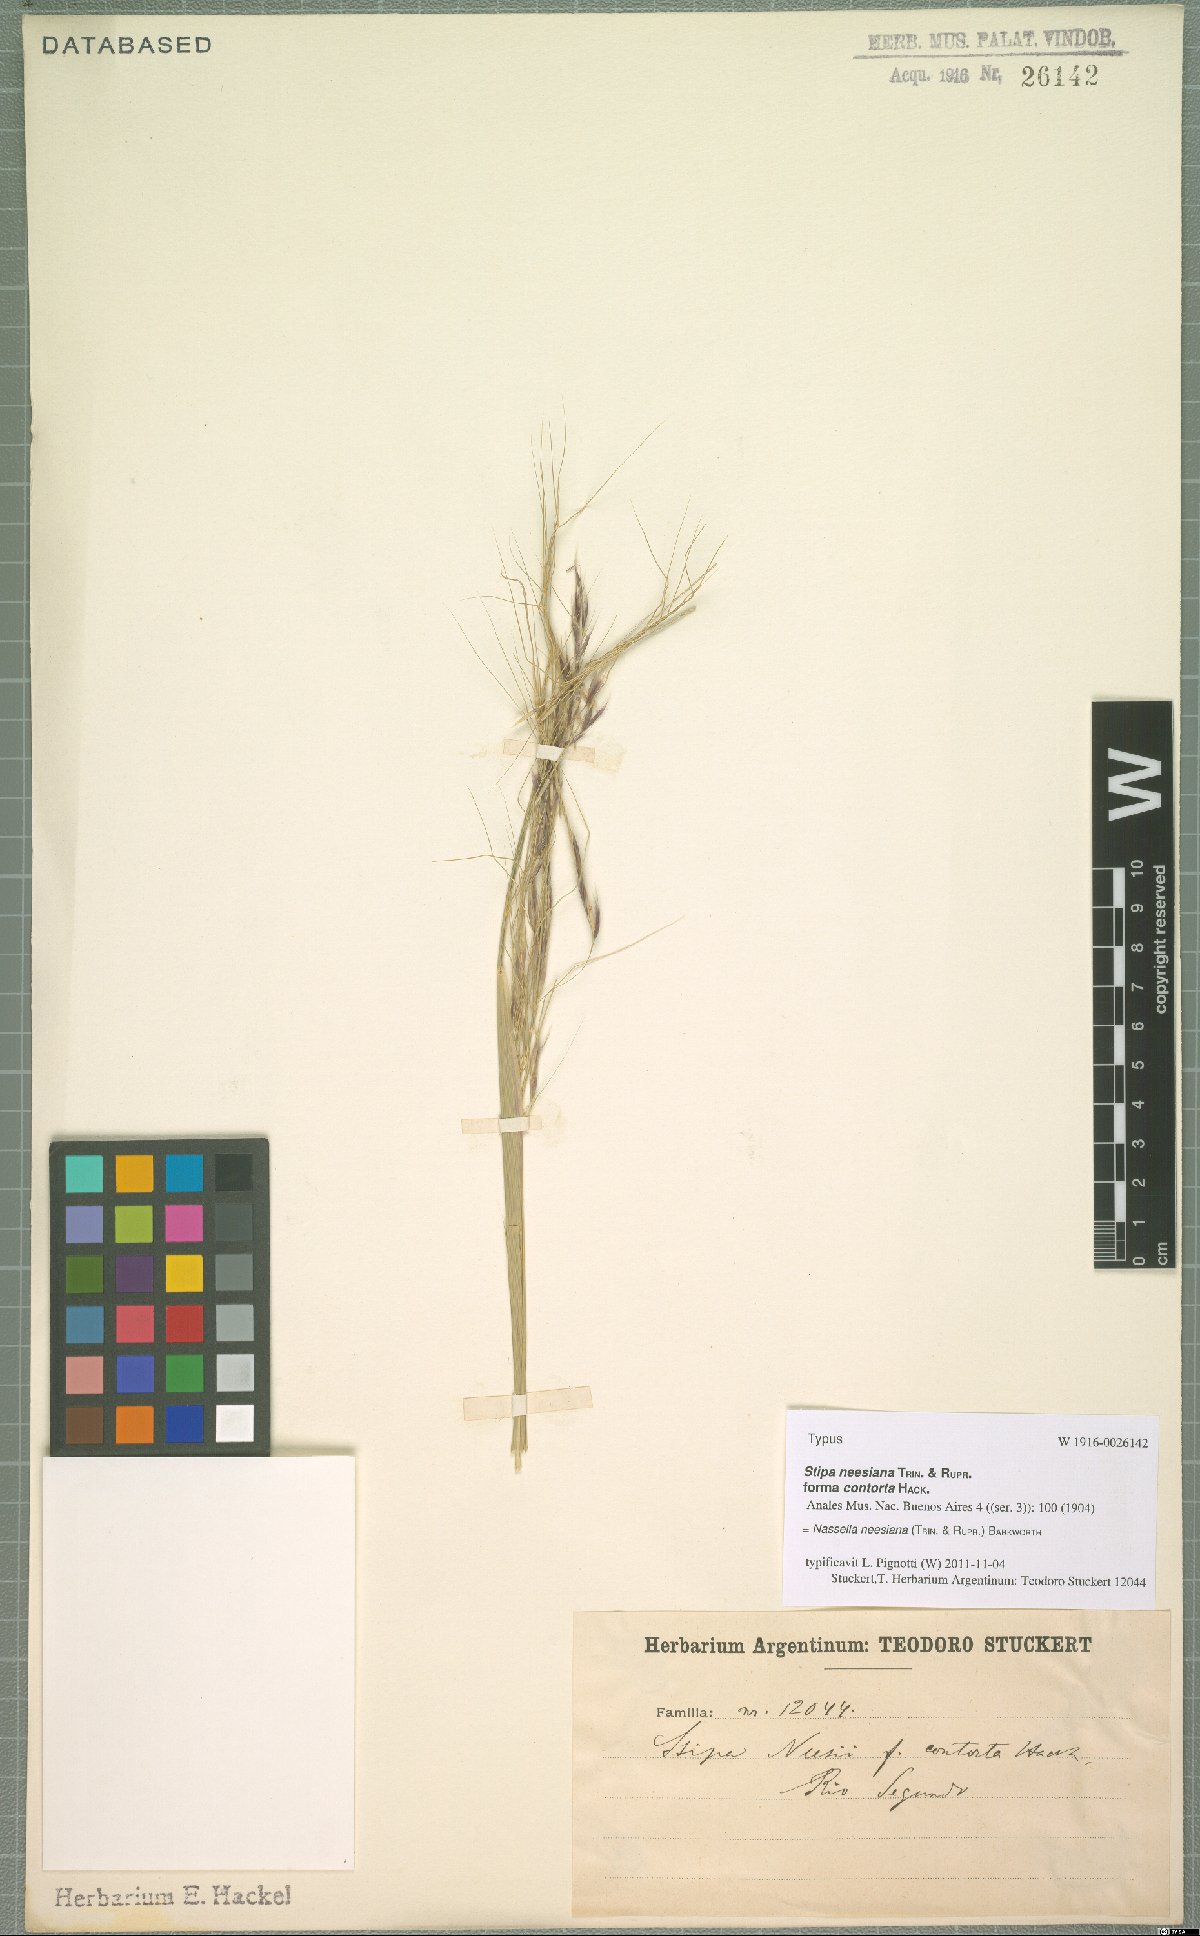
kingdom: Plantae
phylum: Tracheophyta
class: Liliopsida
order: Poales
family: Poaceae
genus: Nassella
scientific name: Nassella neesiana
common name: American needle-grass
